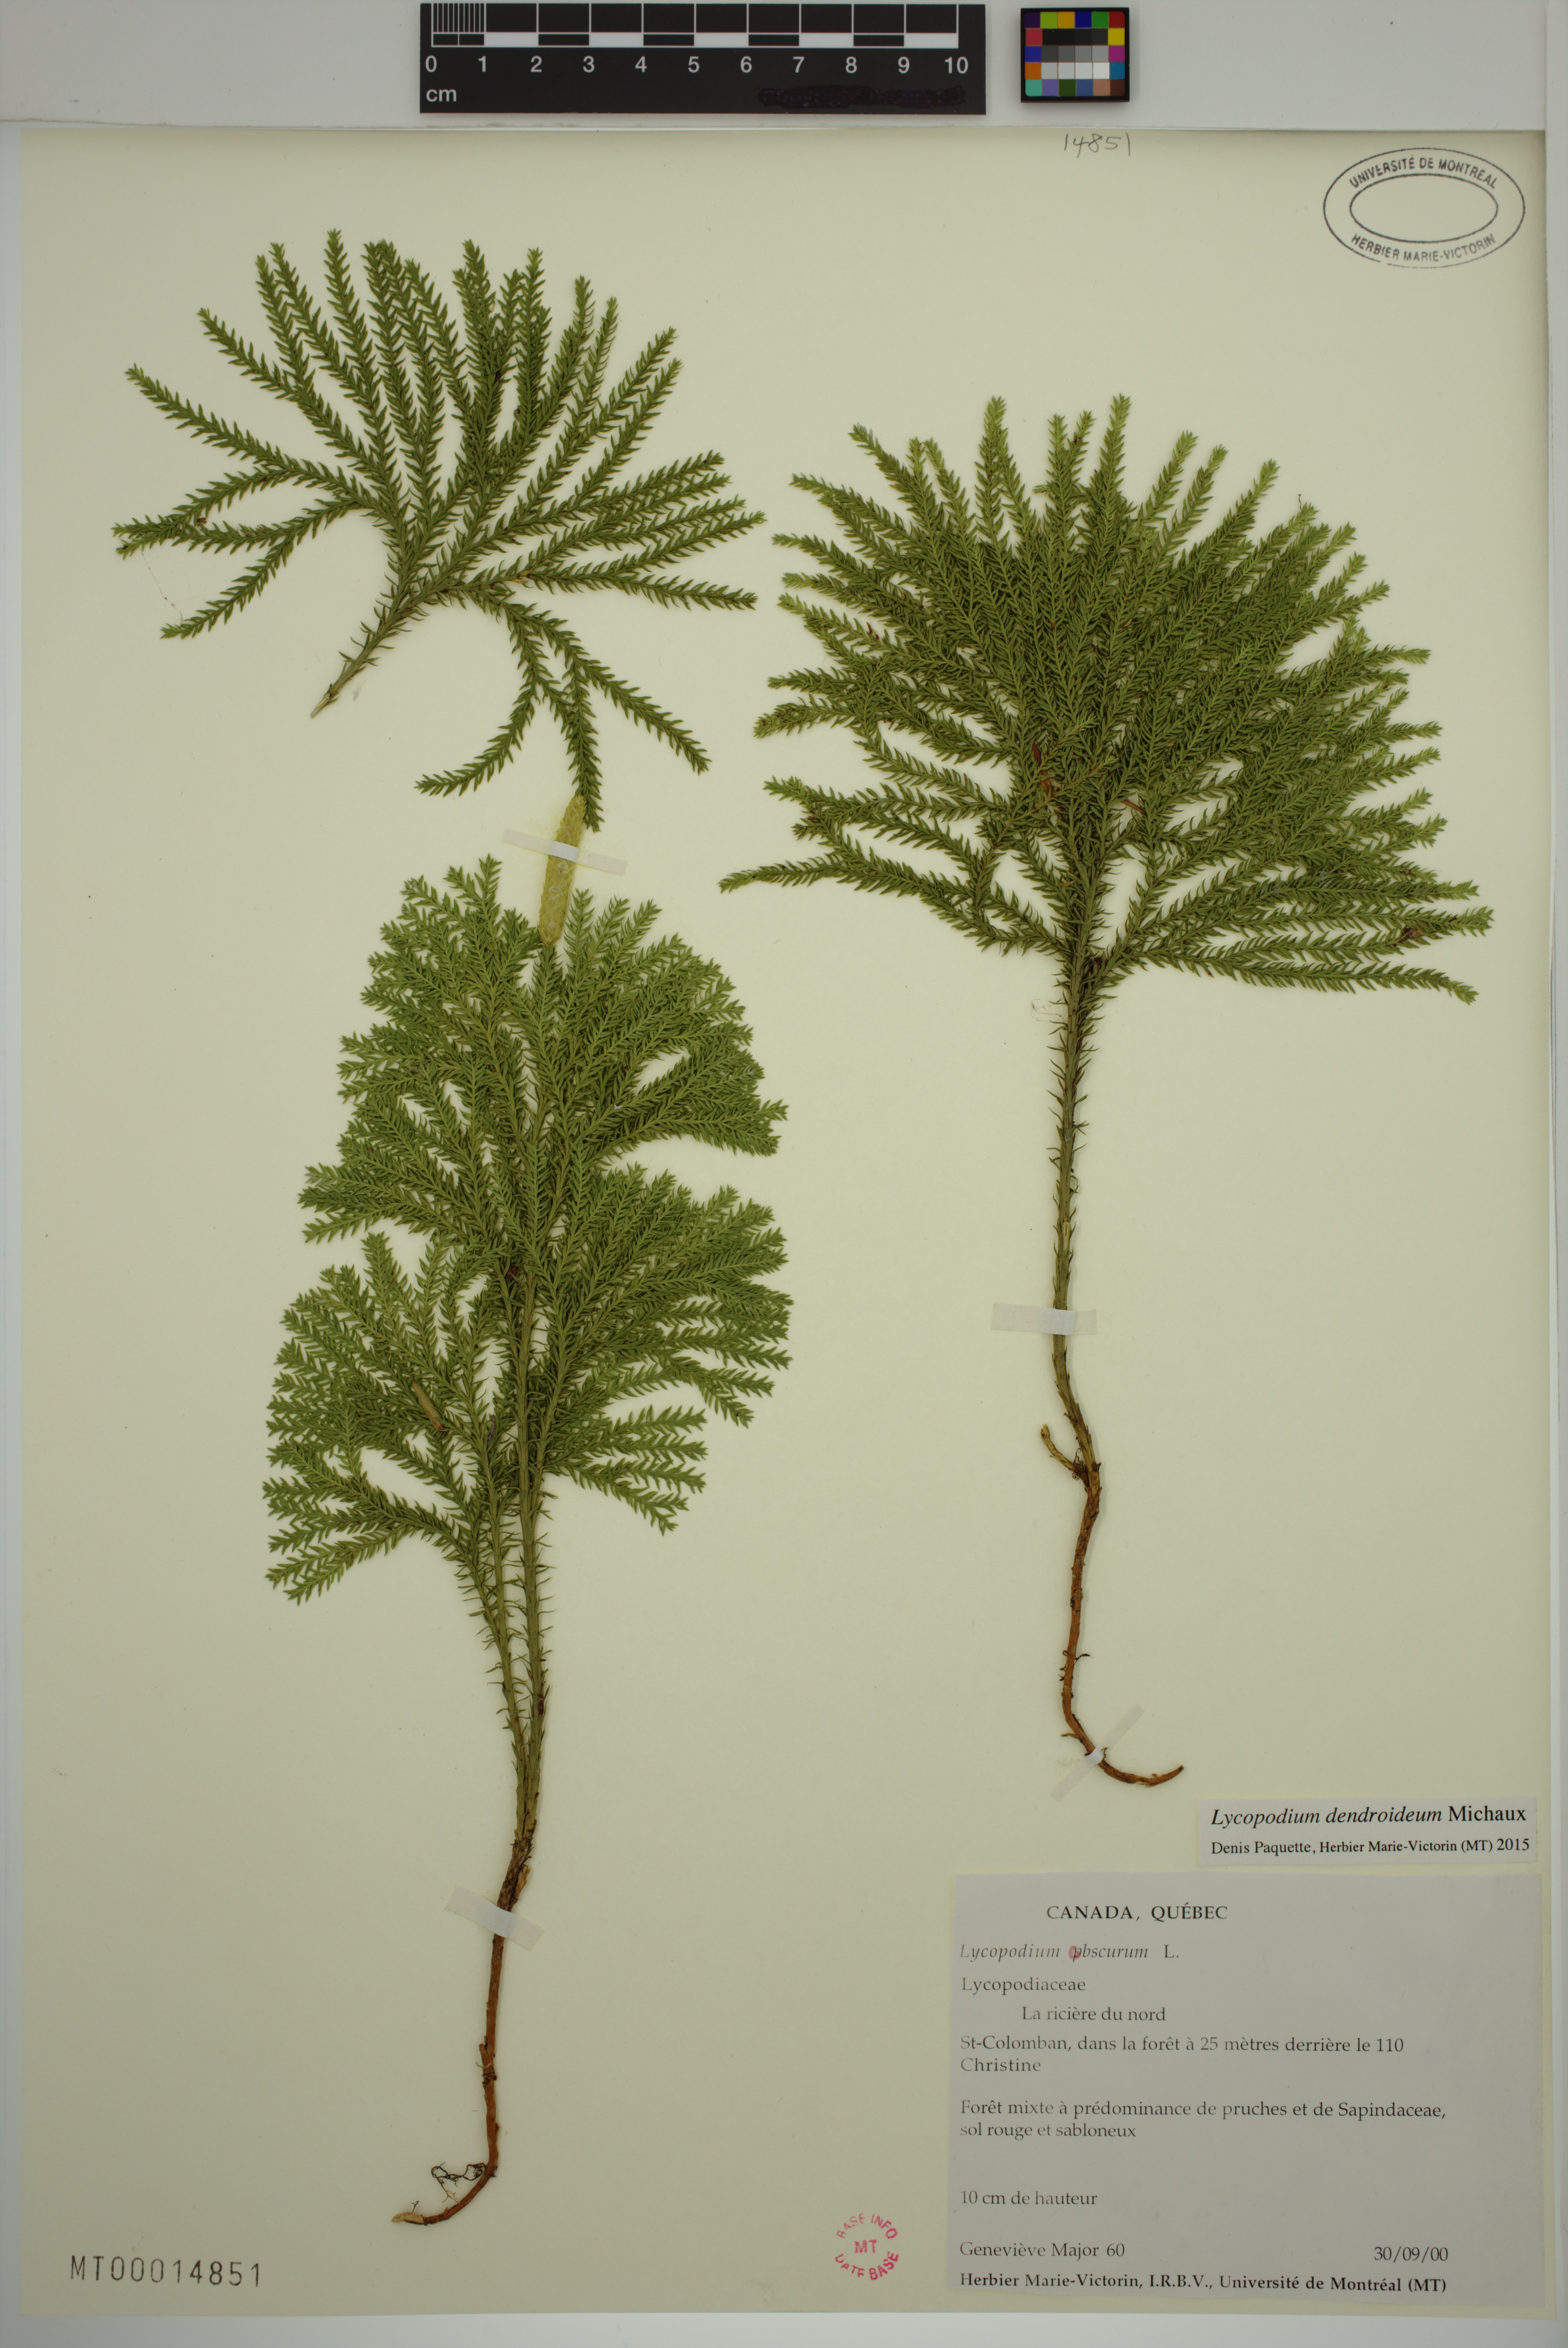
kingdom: Plantae
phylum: Tracheophyta
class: Lycopodiopsida
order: Lycopodiales
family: Lycopodiaceae
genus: Dendrolycopodium
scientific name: Dendrolycopodium dendroideum
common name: Northern tree-clubmoss
